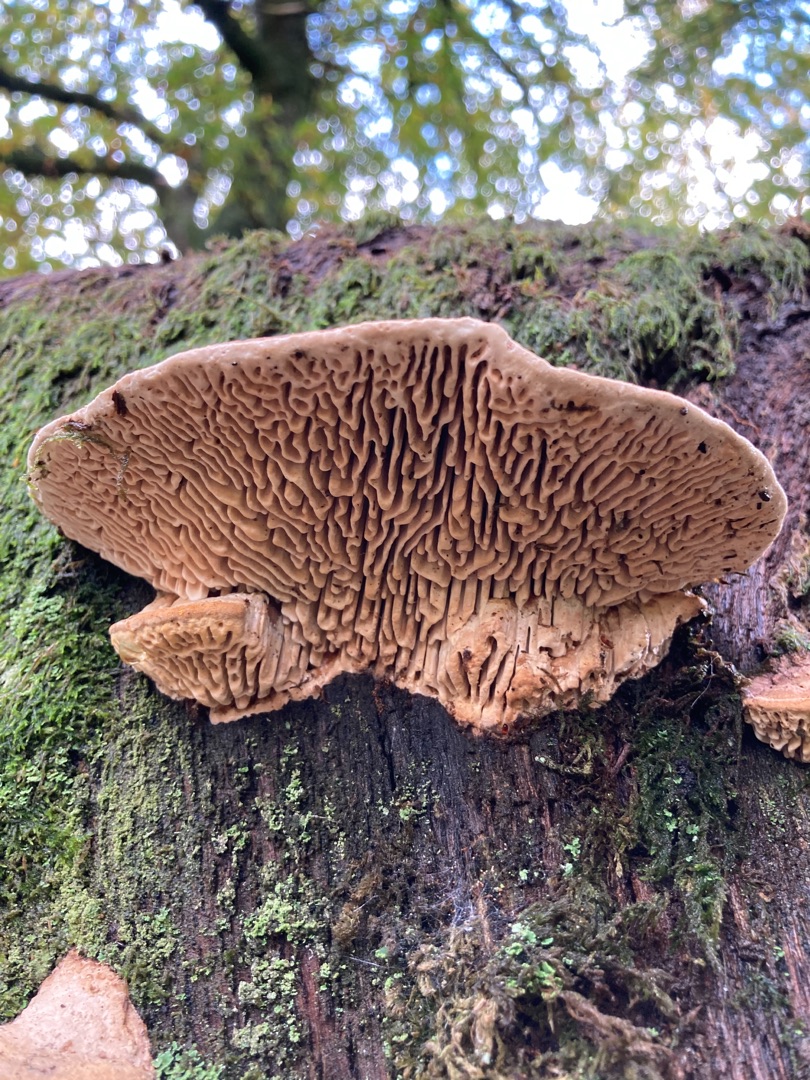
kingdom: Fungi
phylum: Basidiomycota
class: Agaricomycetes
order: Polyporales
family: Fomitopsidaceae
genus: Daedalea
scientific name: Daedalea quercina
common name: Ege-labyrintsvamp
